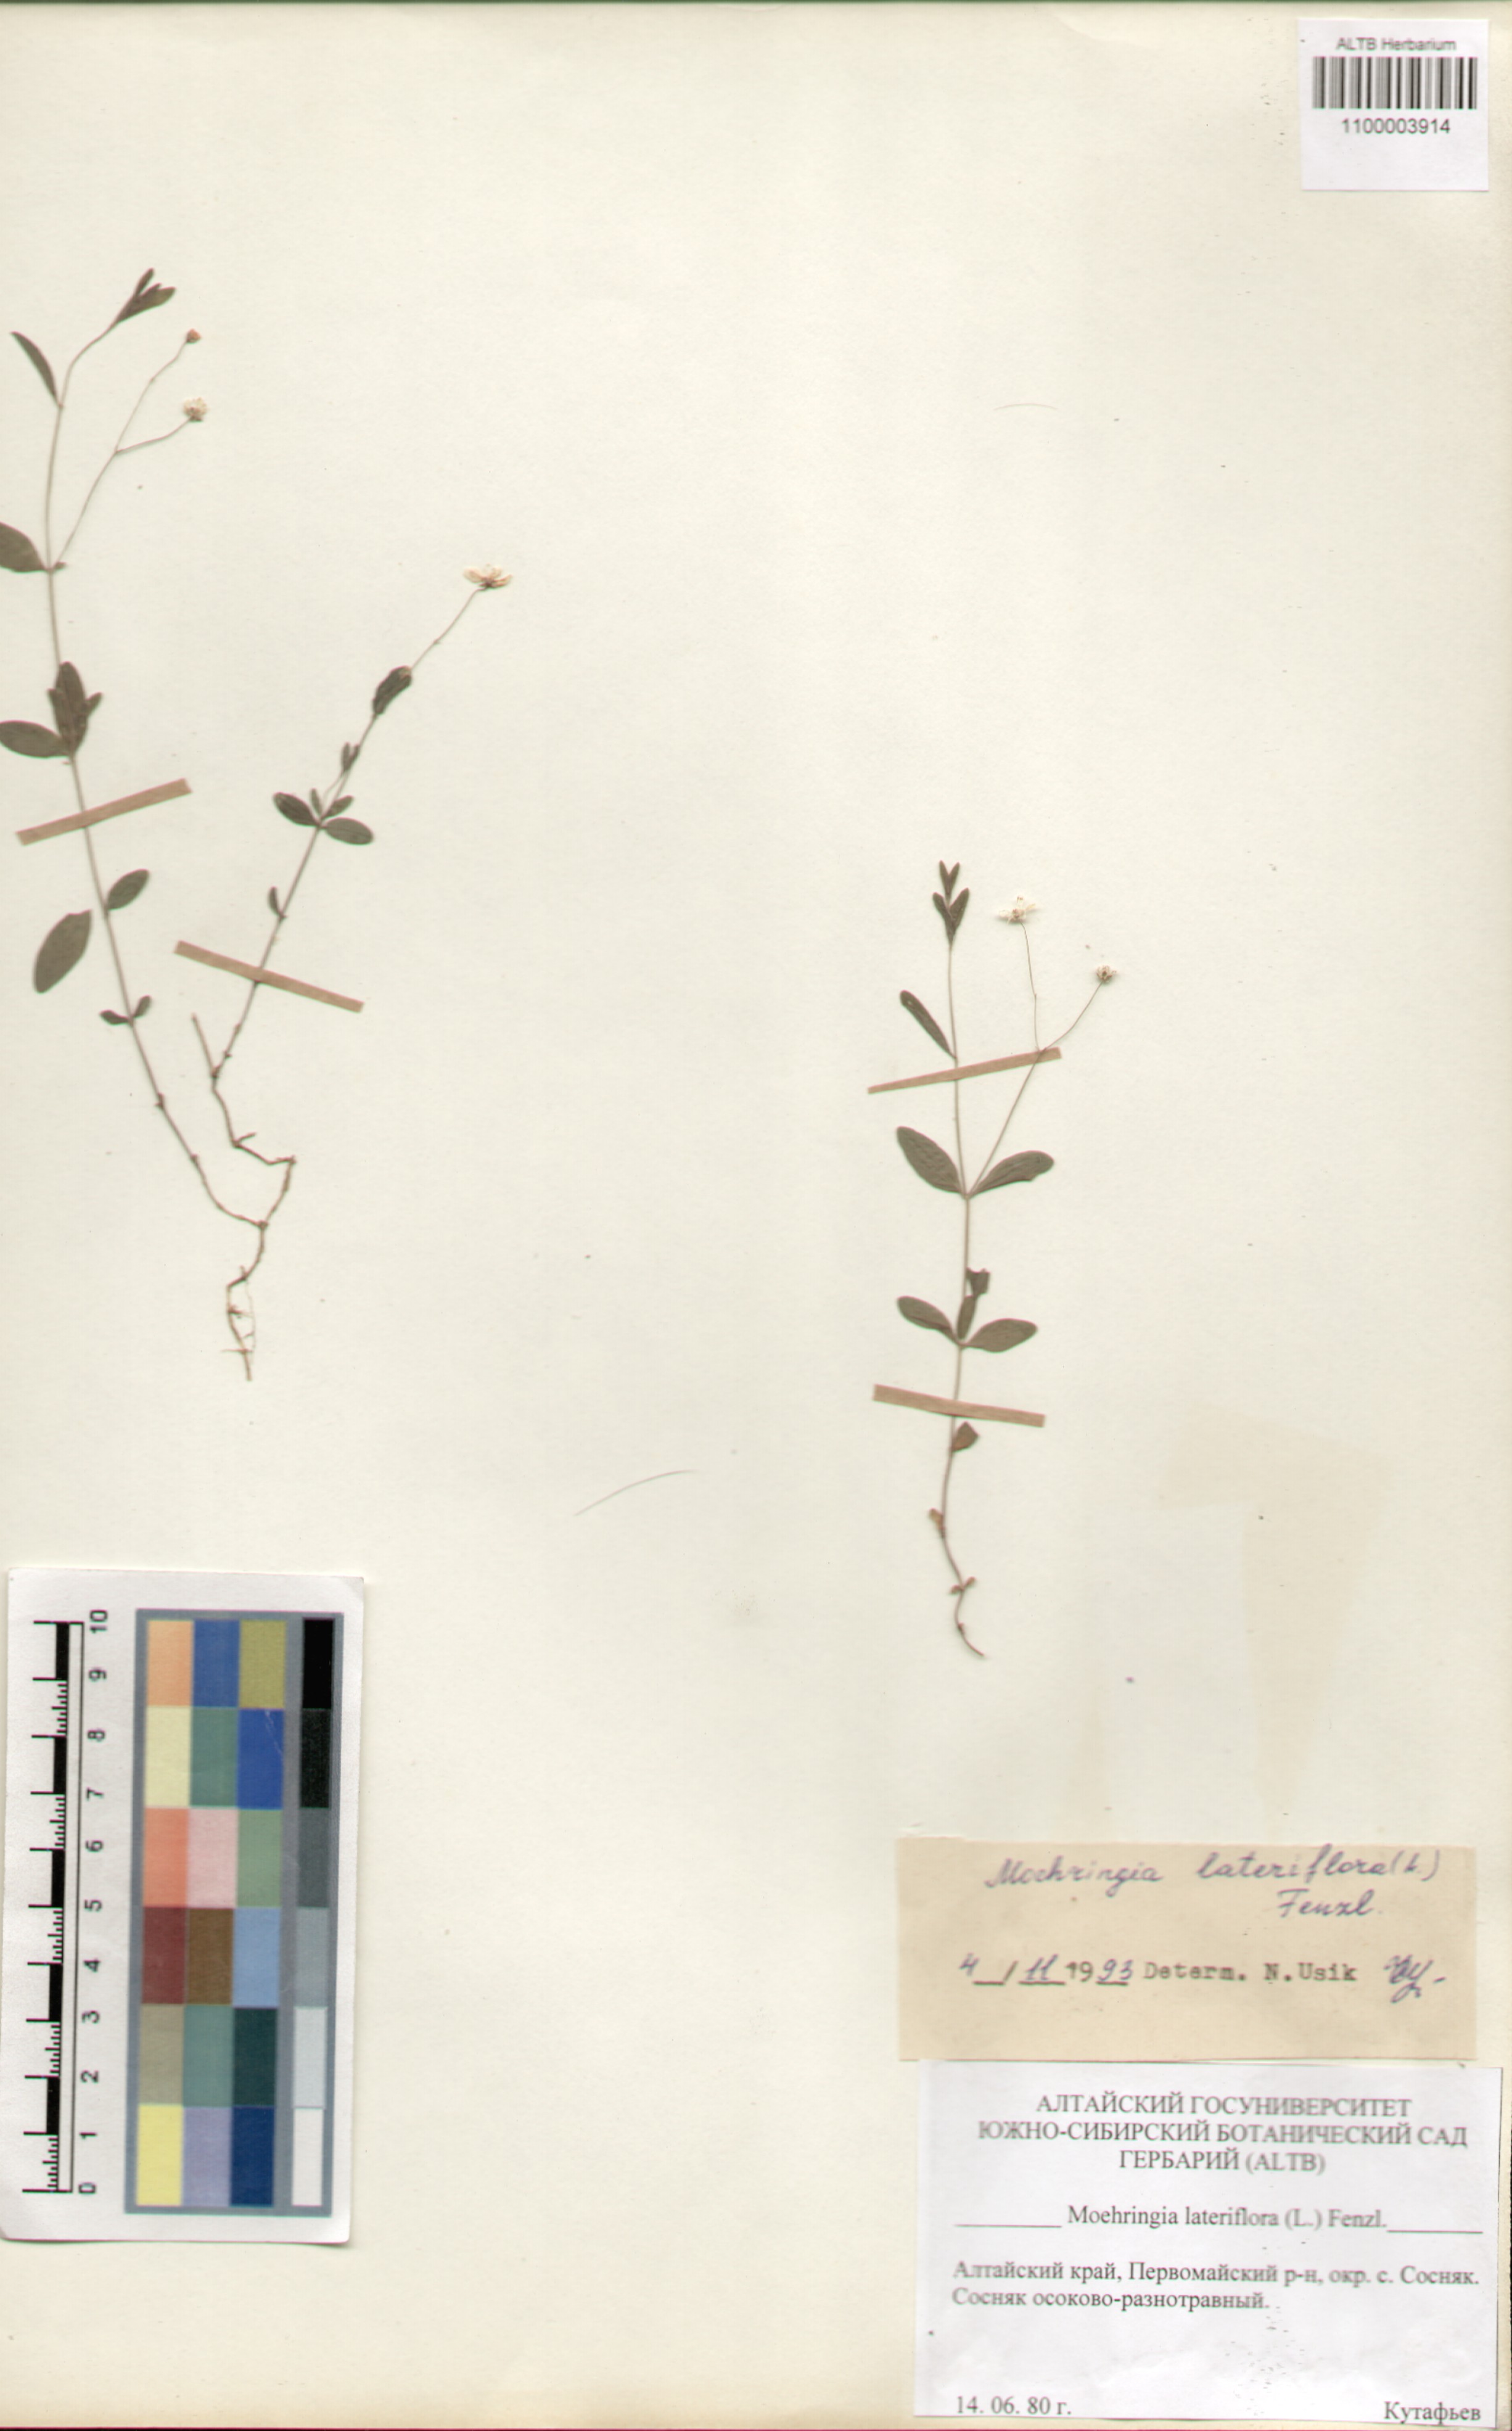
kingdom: Plantae
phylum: Tracheophyta
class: Magnoliopsida
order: Caryophyllales
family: Caryophyllaceae
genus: Moehringia
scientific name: Moehringia lateriflora
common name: Blunt-leaved sandwort
